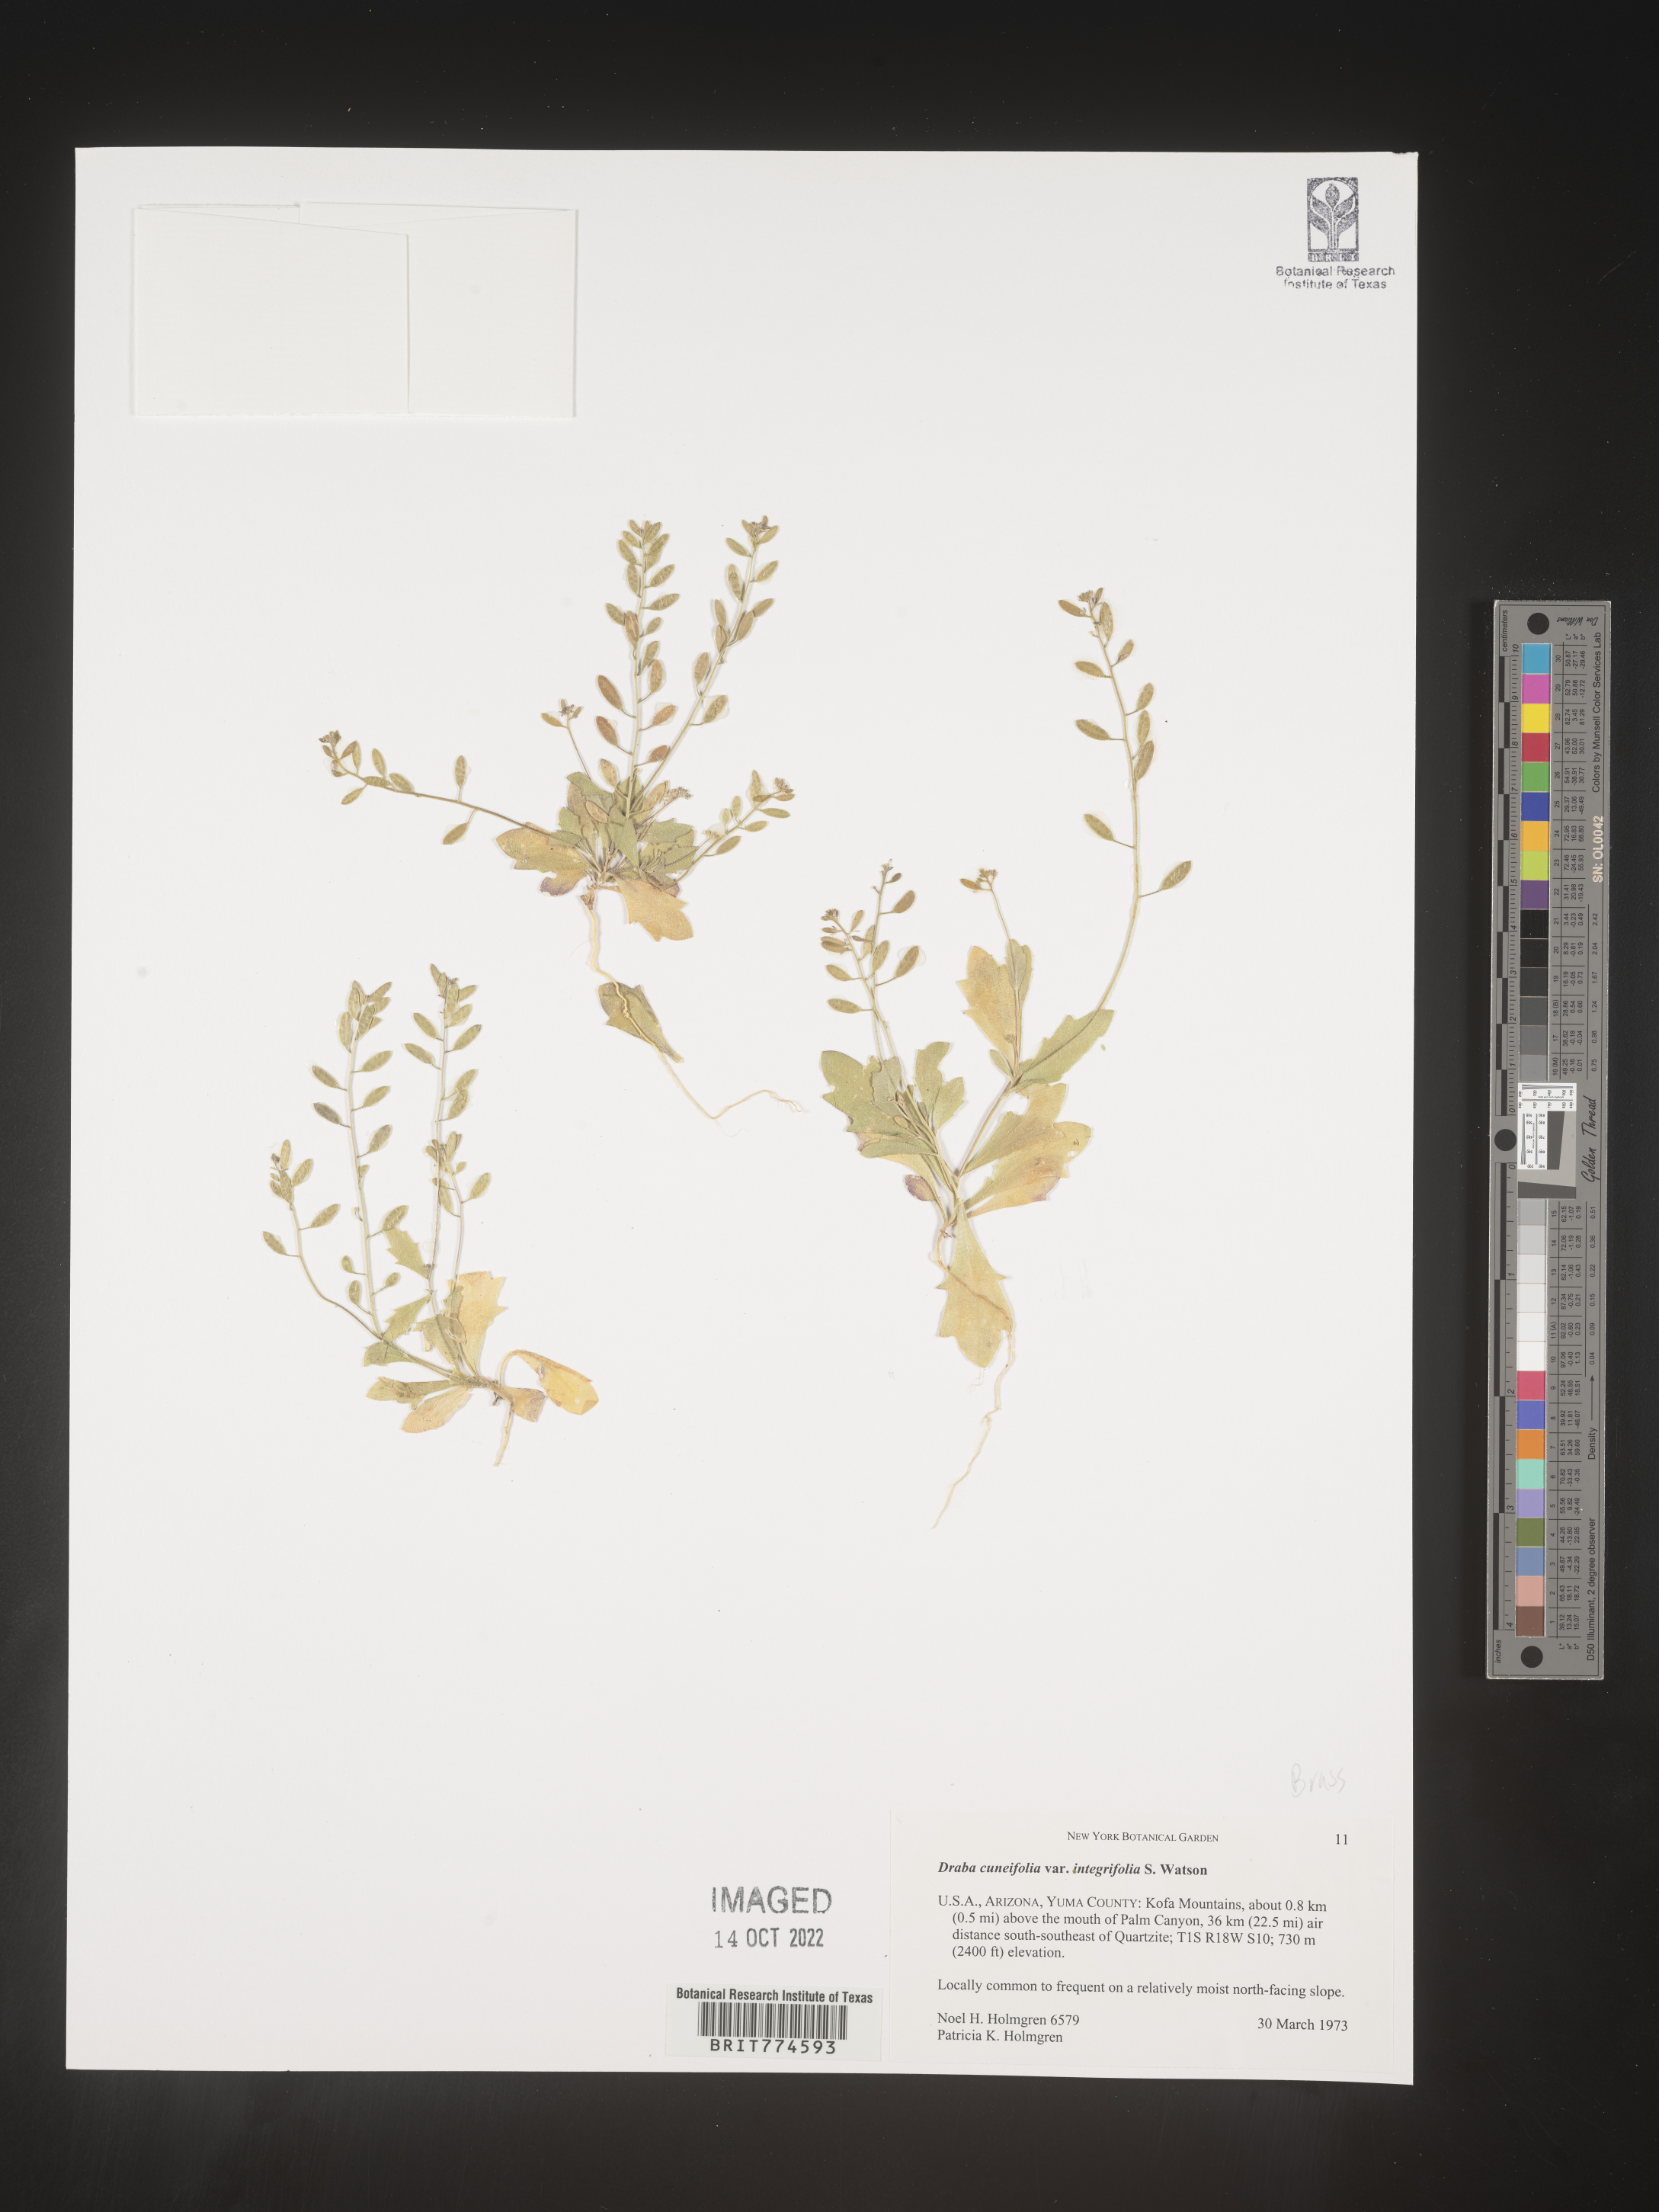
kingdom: Plantae
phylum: Tracheophyta
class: Magnoliopsida
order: Brassicales
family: Brassicaceae
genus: Tomostima
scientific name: Tomostima cuneifolia
